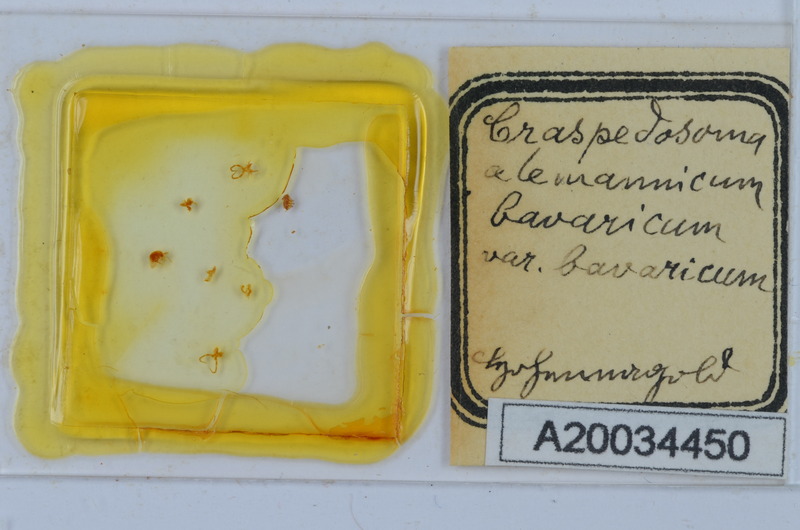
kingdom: Animalia
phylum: Arthropoda
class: Diplopoda
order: Chordeumatida
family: Craspedosomatidae
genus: Craspedosoma
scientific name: Craspedosoma rawlinsii
